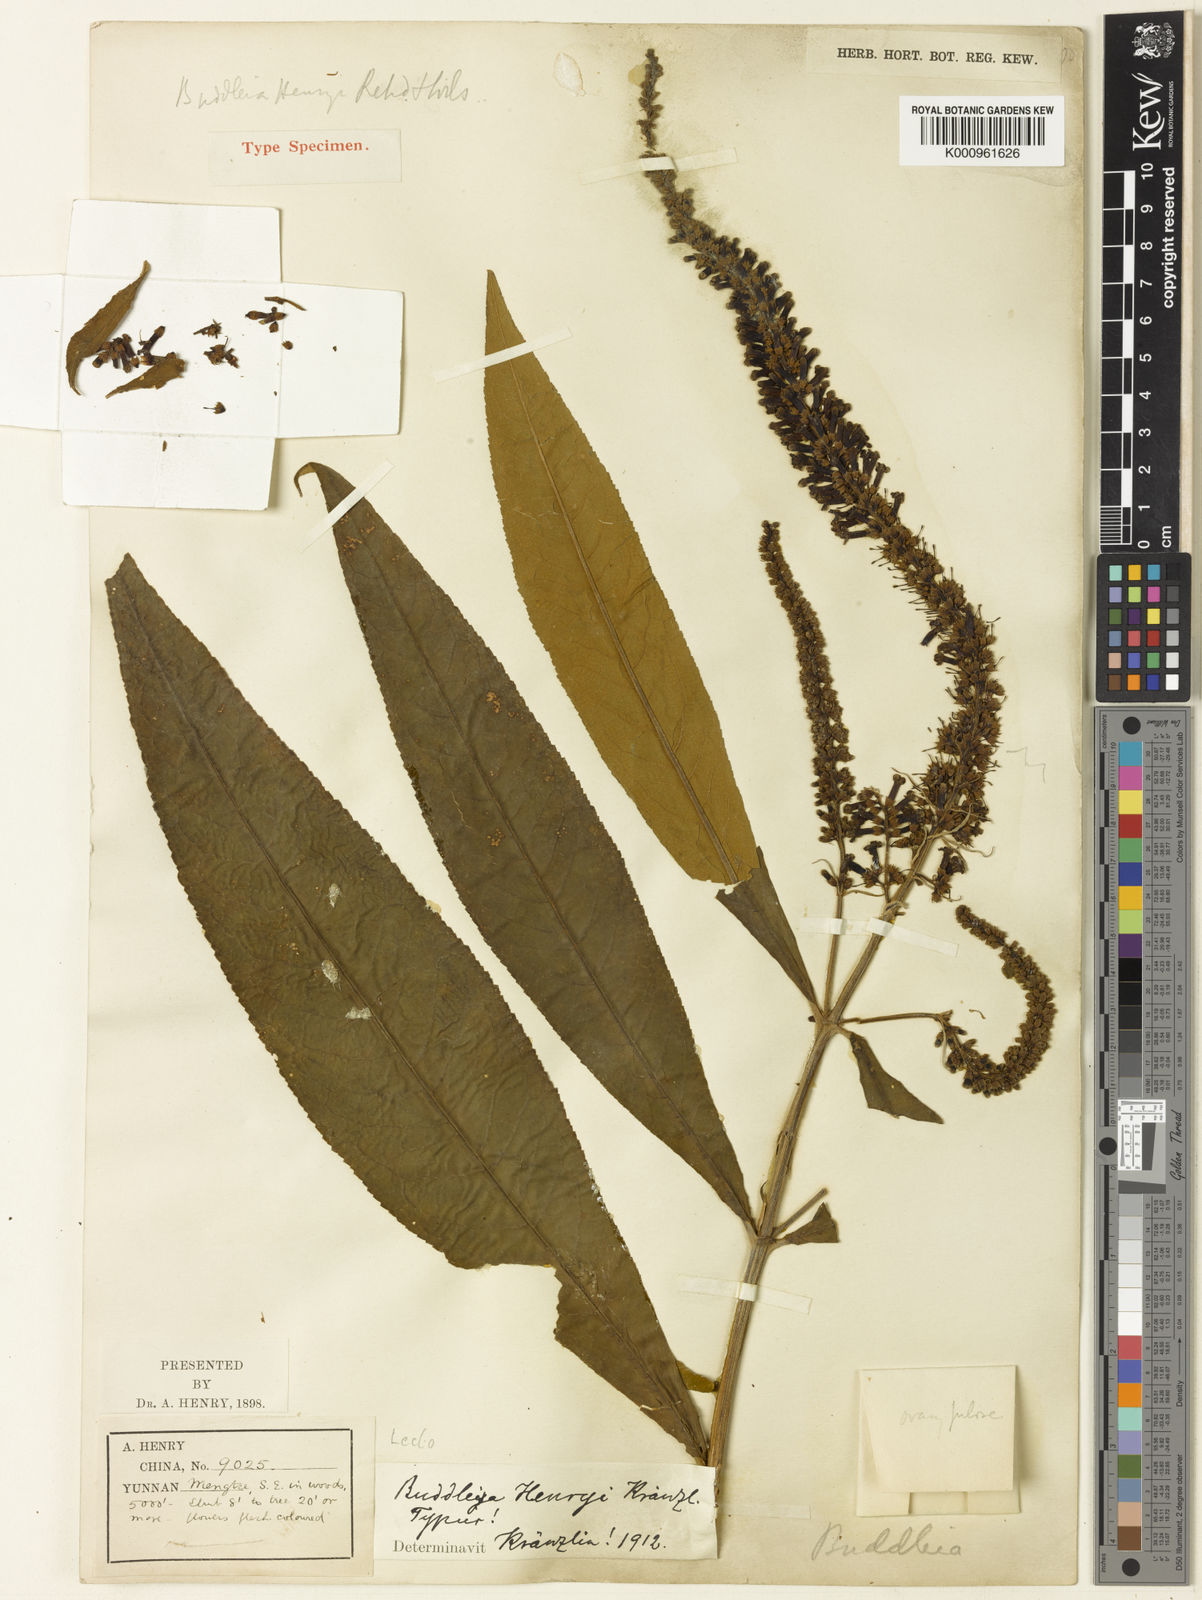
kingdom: Plantae
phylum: Tracheophyta
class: Magnoliopsida
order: Lamiales
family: Scrophulariaceae
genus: Buddleja
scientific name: Buddleja longifolia
